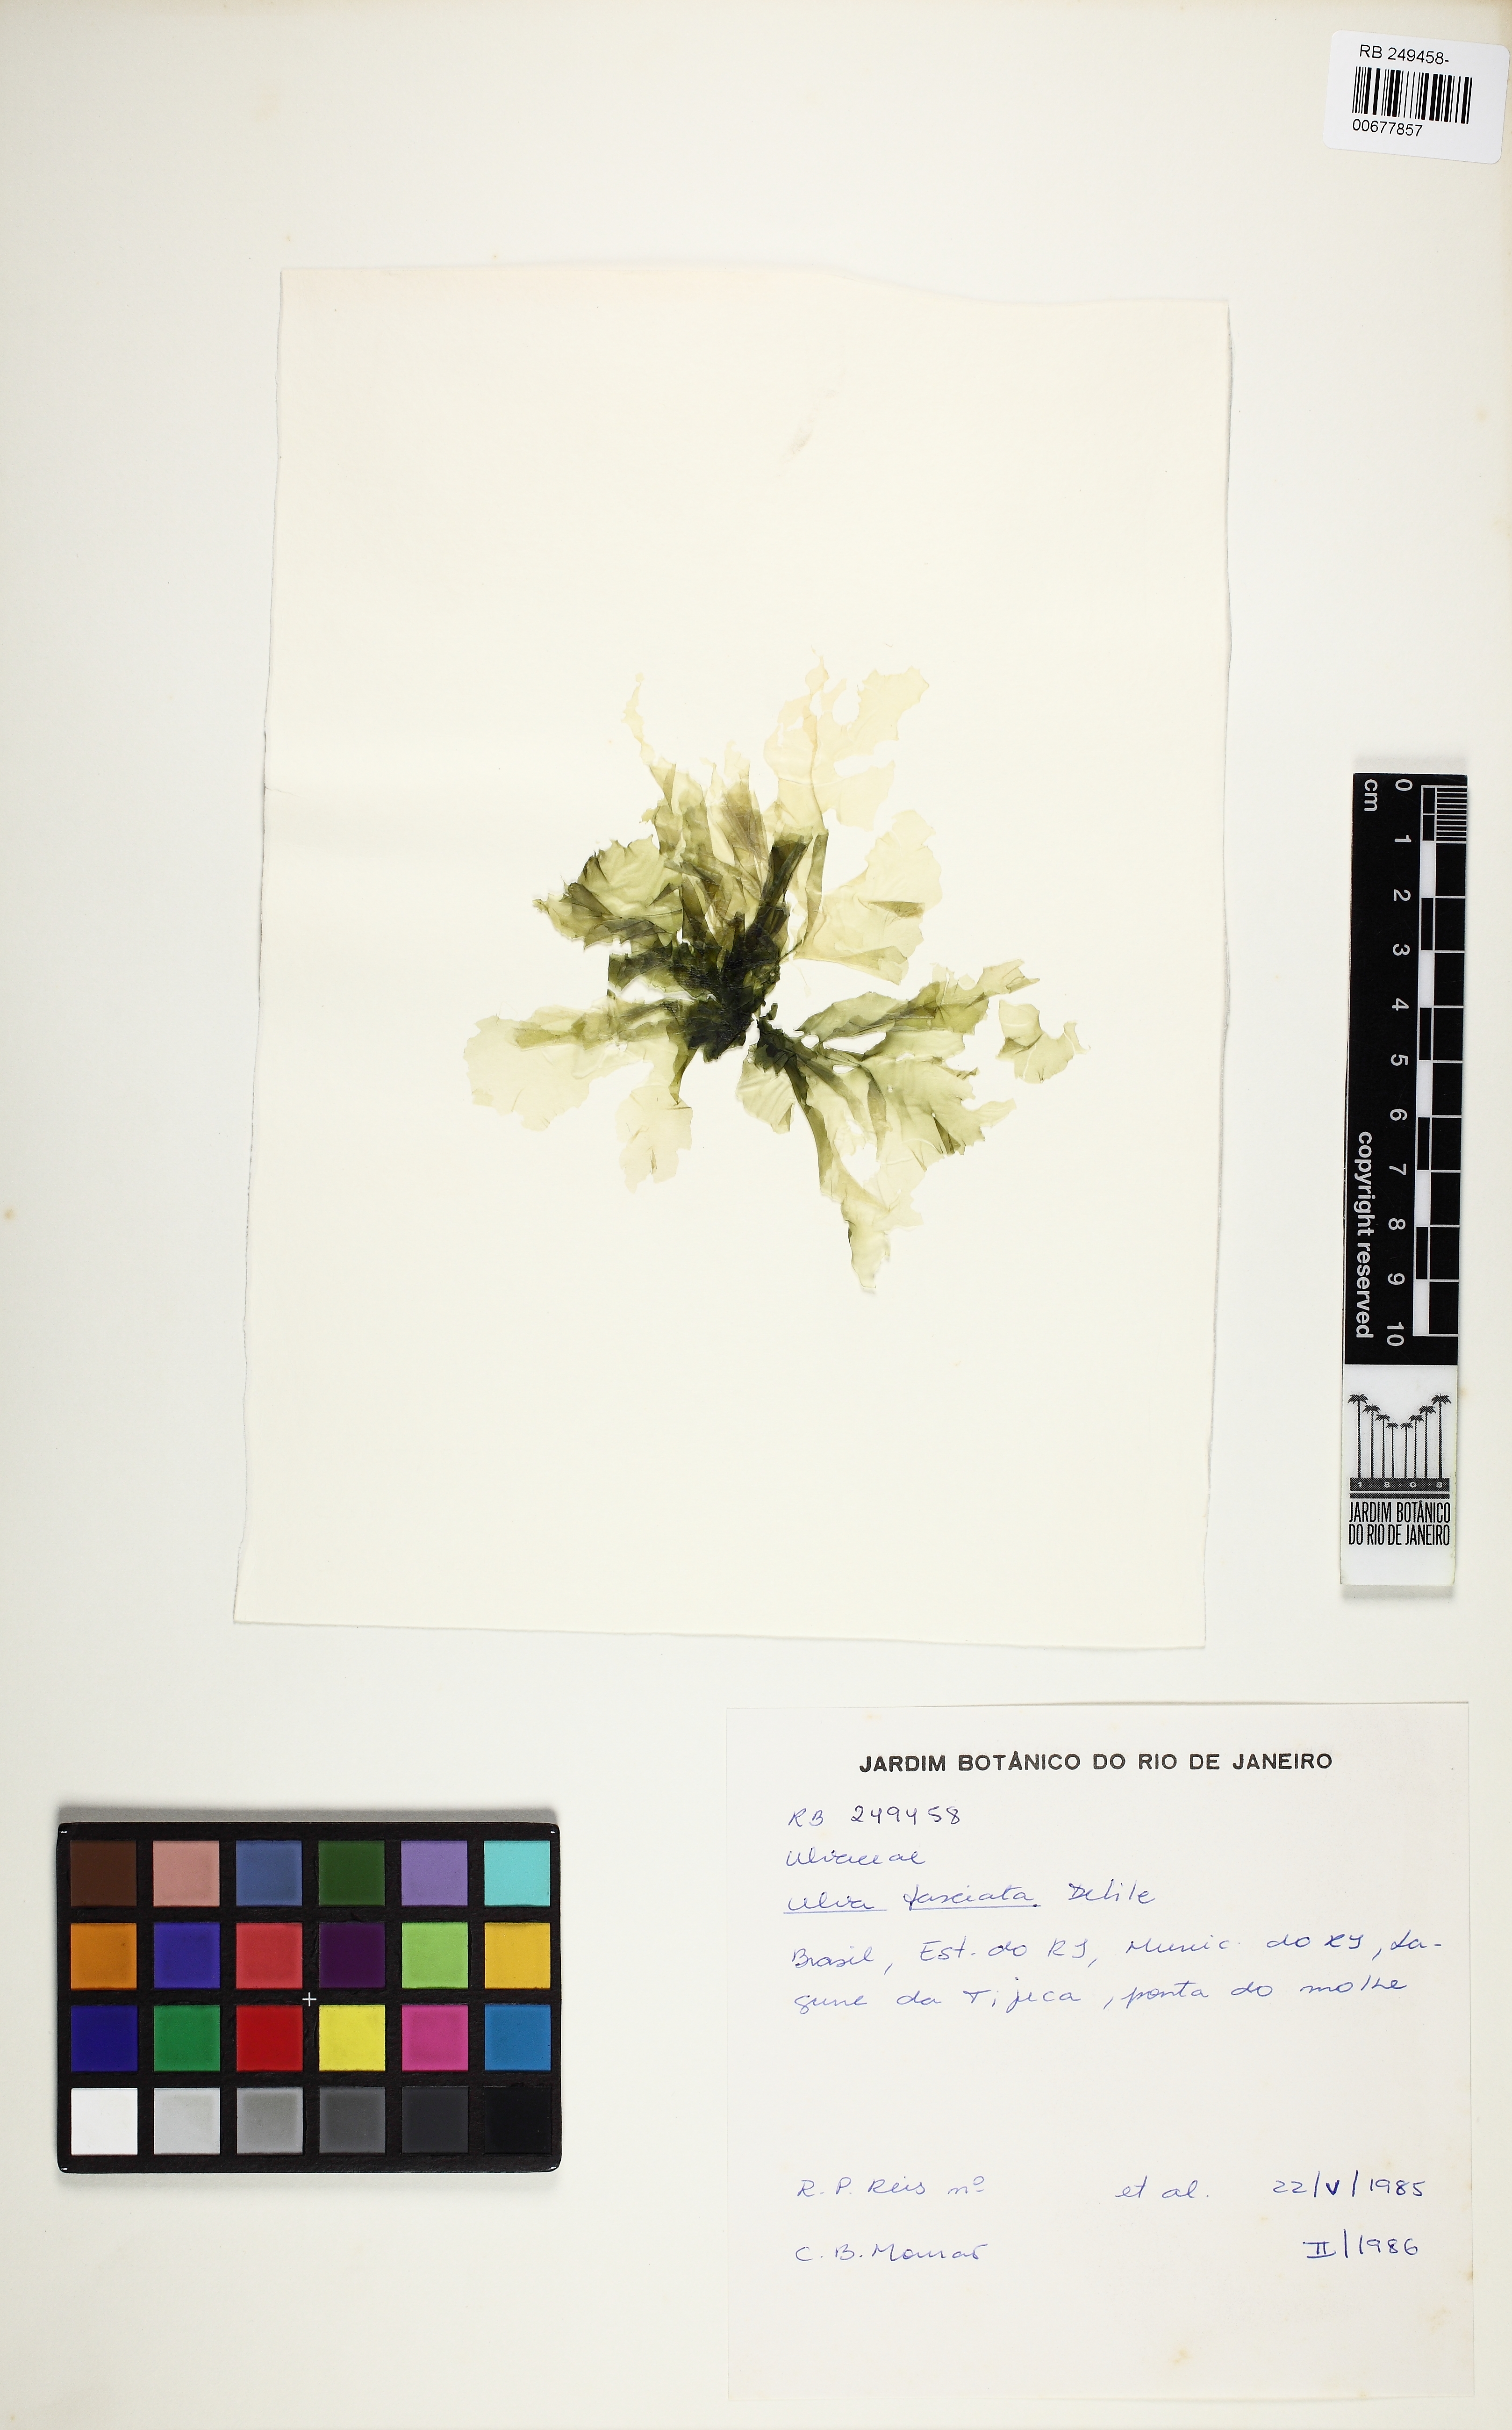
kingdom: Plantae
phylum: Chlorophyta
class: Ulvophyceae
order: Ulvales
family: Ulvaceae
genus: Ulva
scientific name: Ulva lactuca
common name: Sea lettuce
